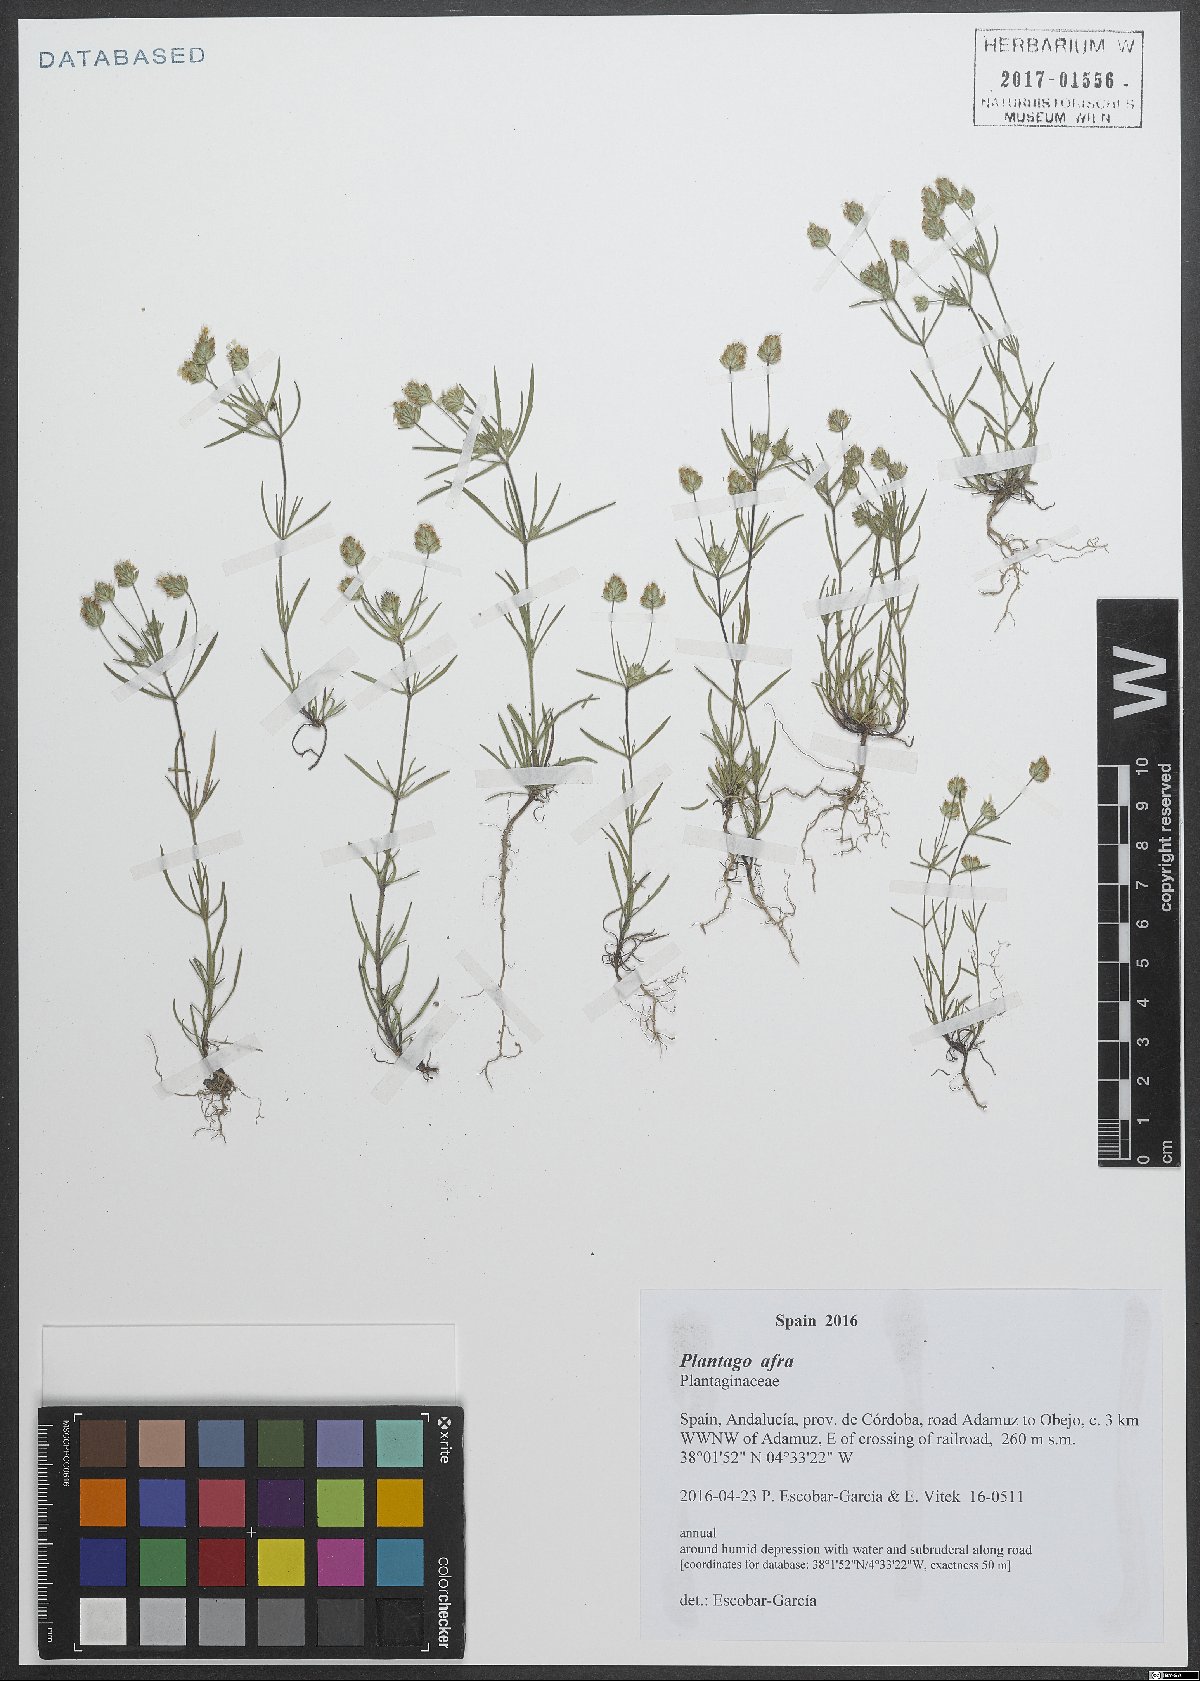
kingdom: Plantae
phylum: Tracheophyta
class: Magnoliopsida
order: Lamiales
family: Plantaginaceae
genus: Plantago
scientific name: Plantago afra
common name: Glandular plantain
